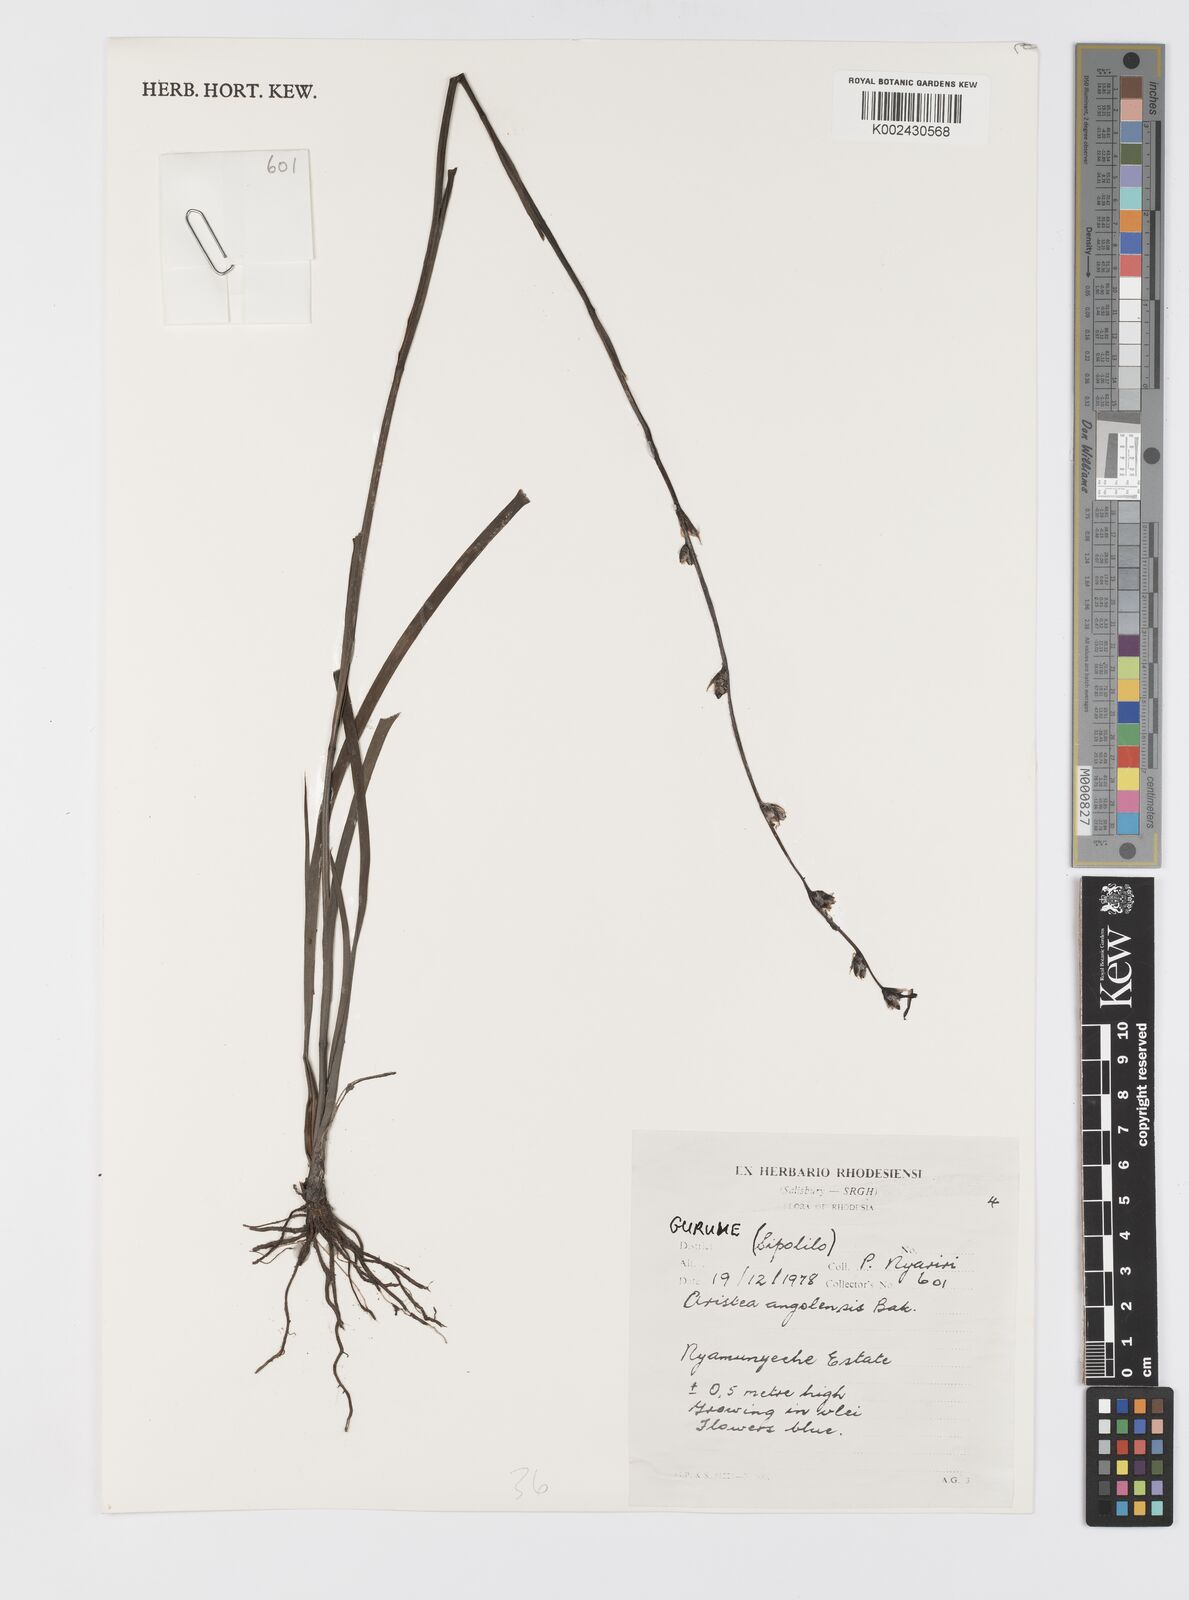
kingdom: Plantae
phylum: Tracheophyta
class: Liliopsida
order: Asparagales
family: Iridaceae
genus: Aristea
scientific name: Aristea angolensis
